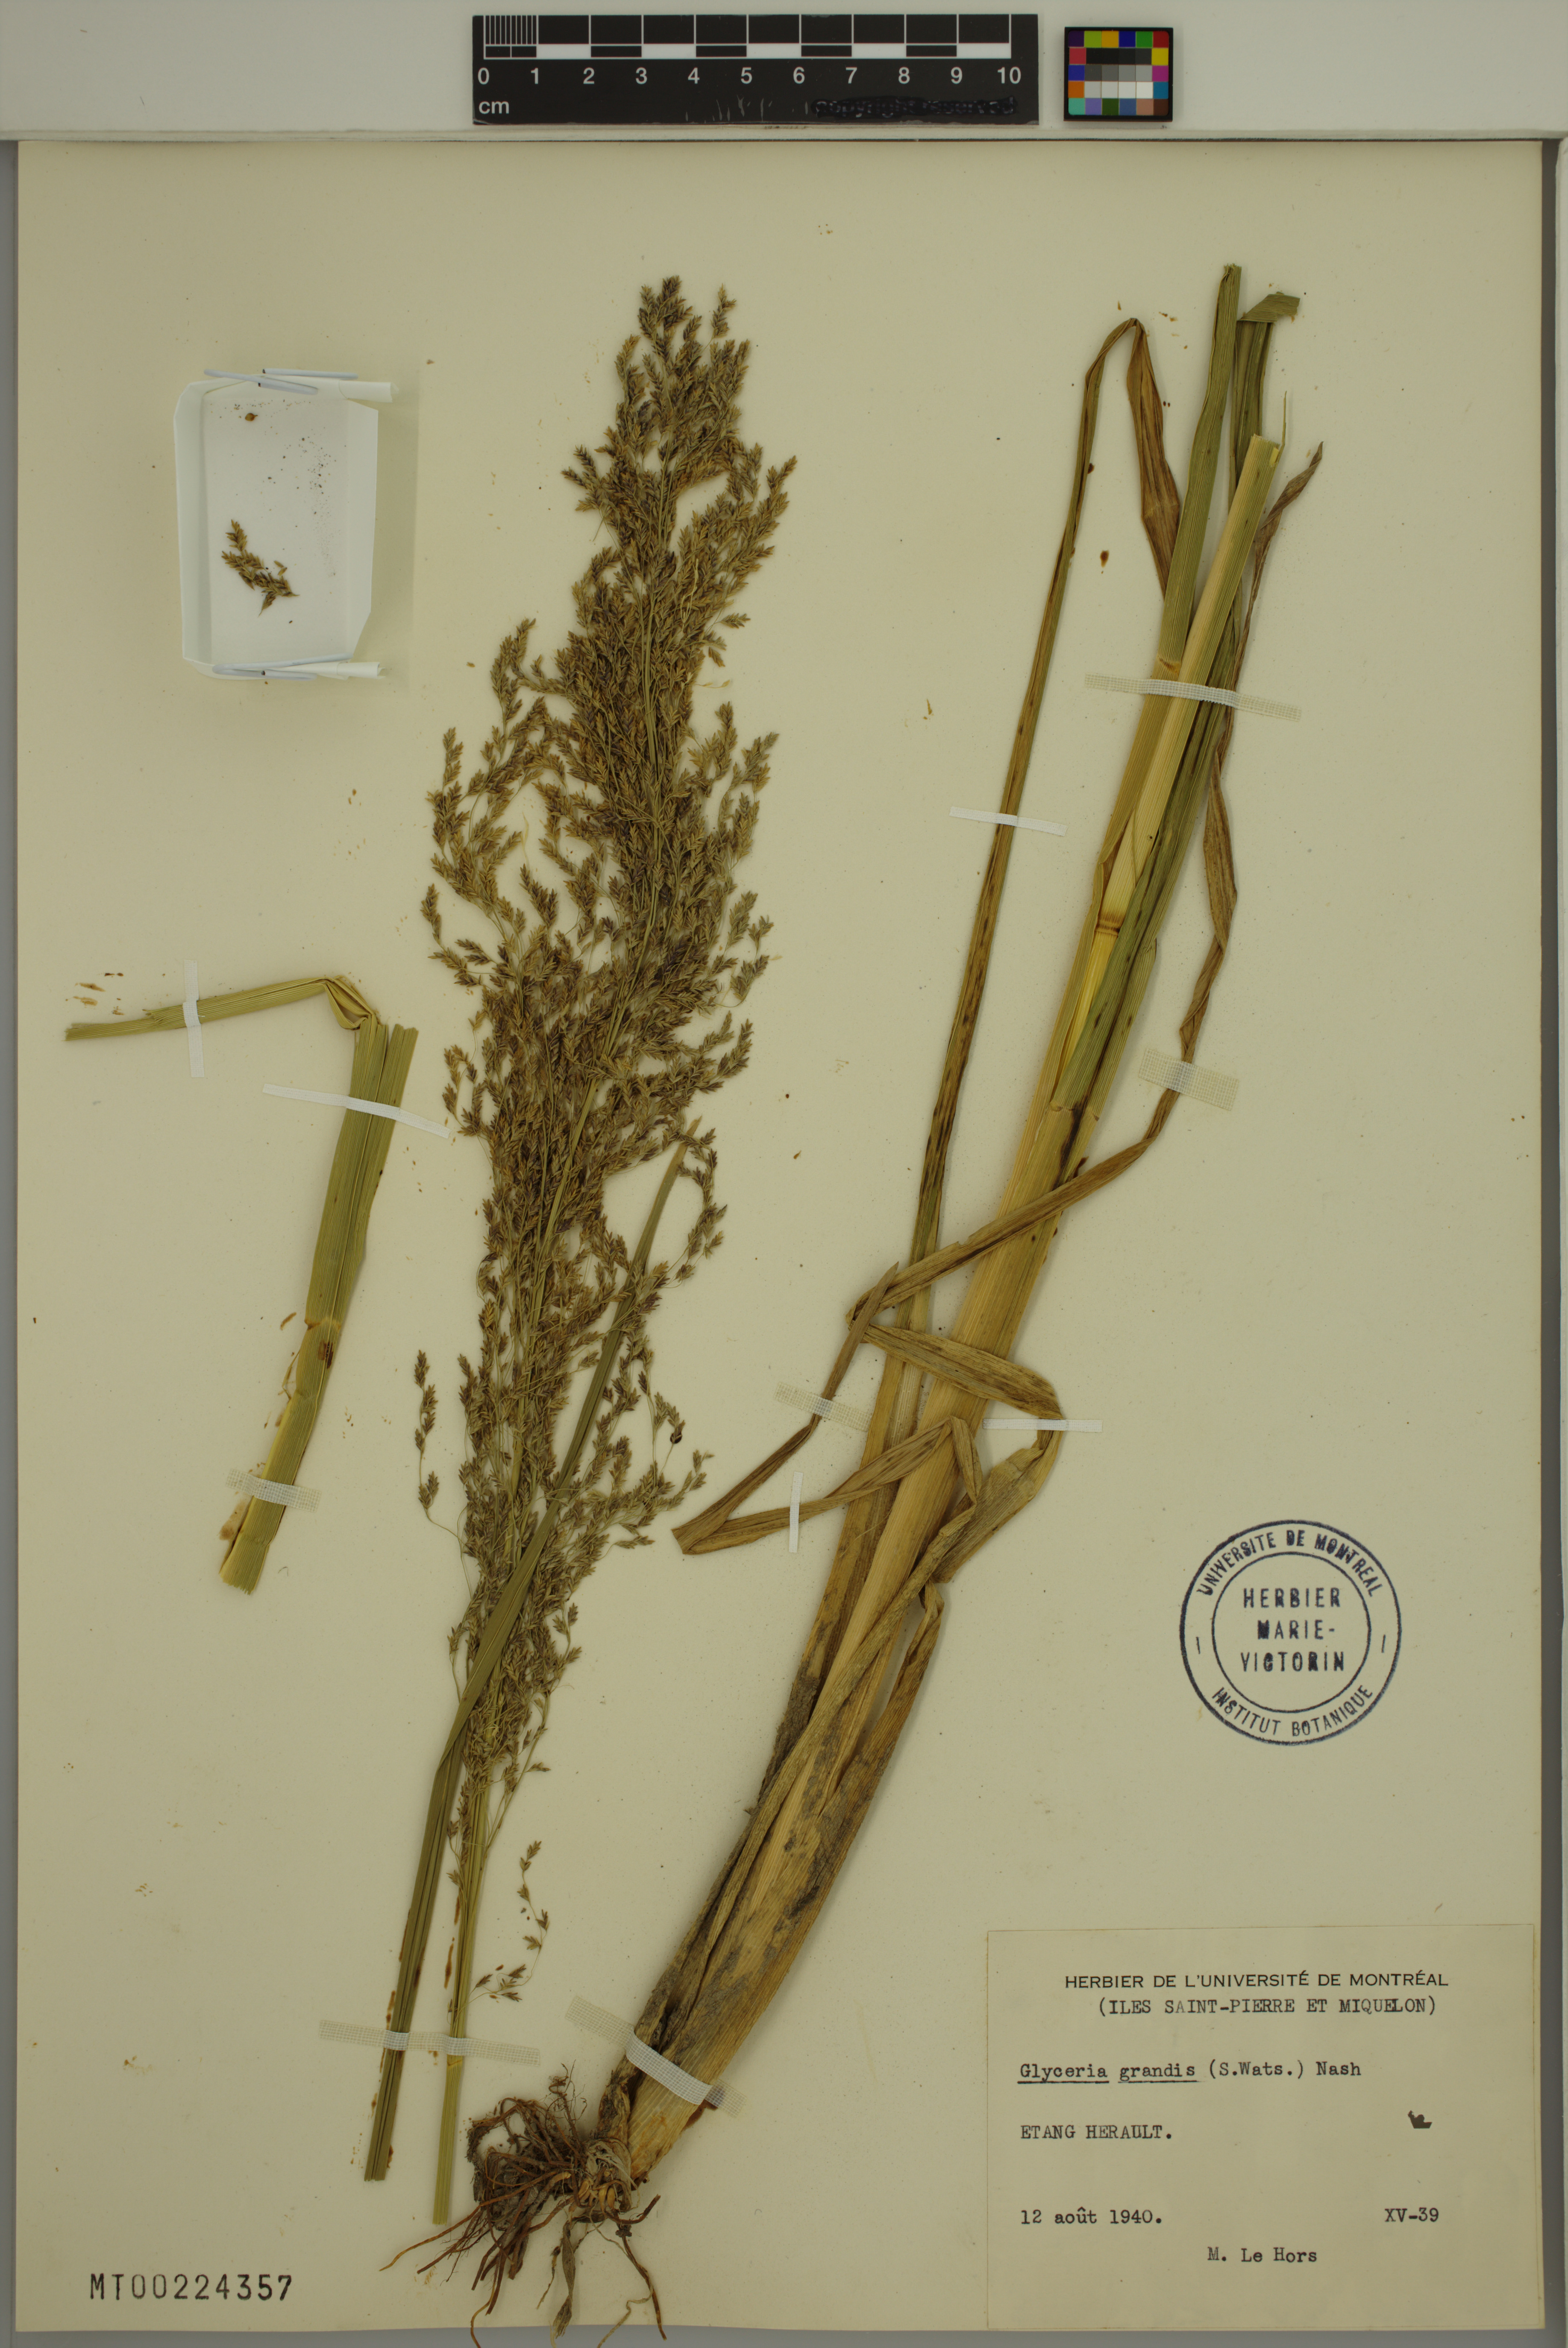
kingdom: Plantae
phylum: Tracheophyta
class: Liliopsida
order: Poales
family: Poaceae
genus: Glyceria
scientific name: Glyceria grandis
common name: American glyceria
